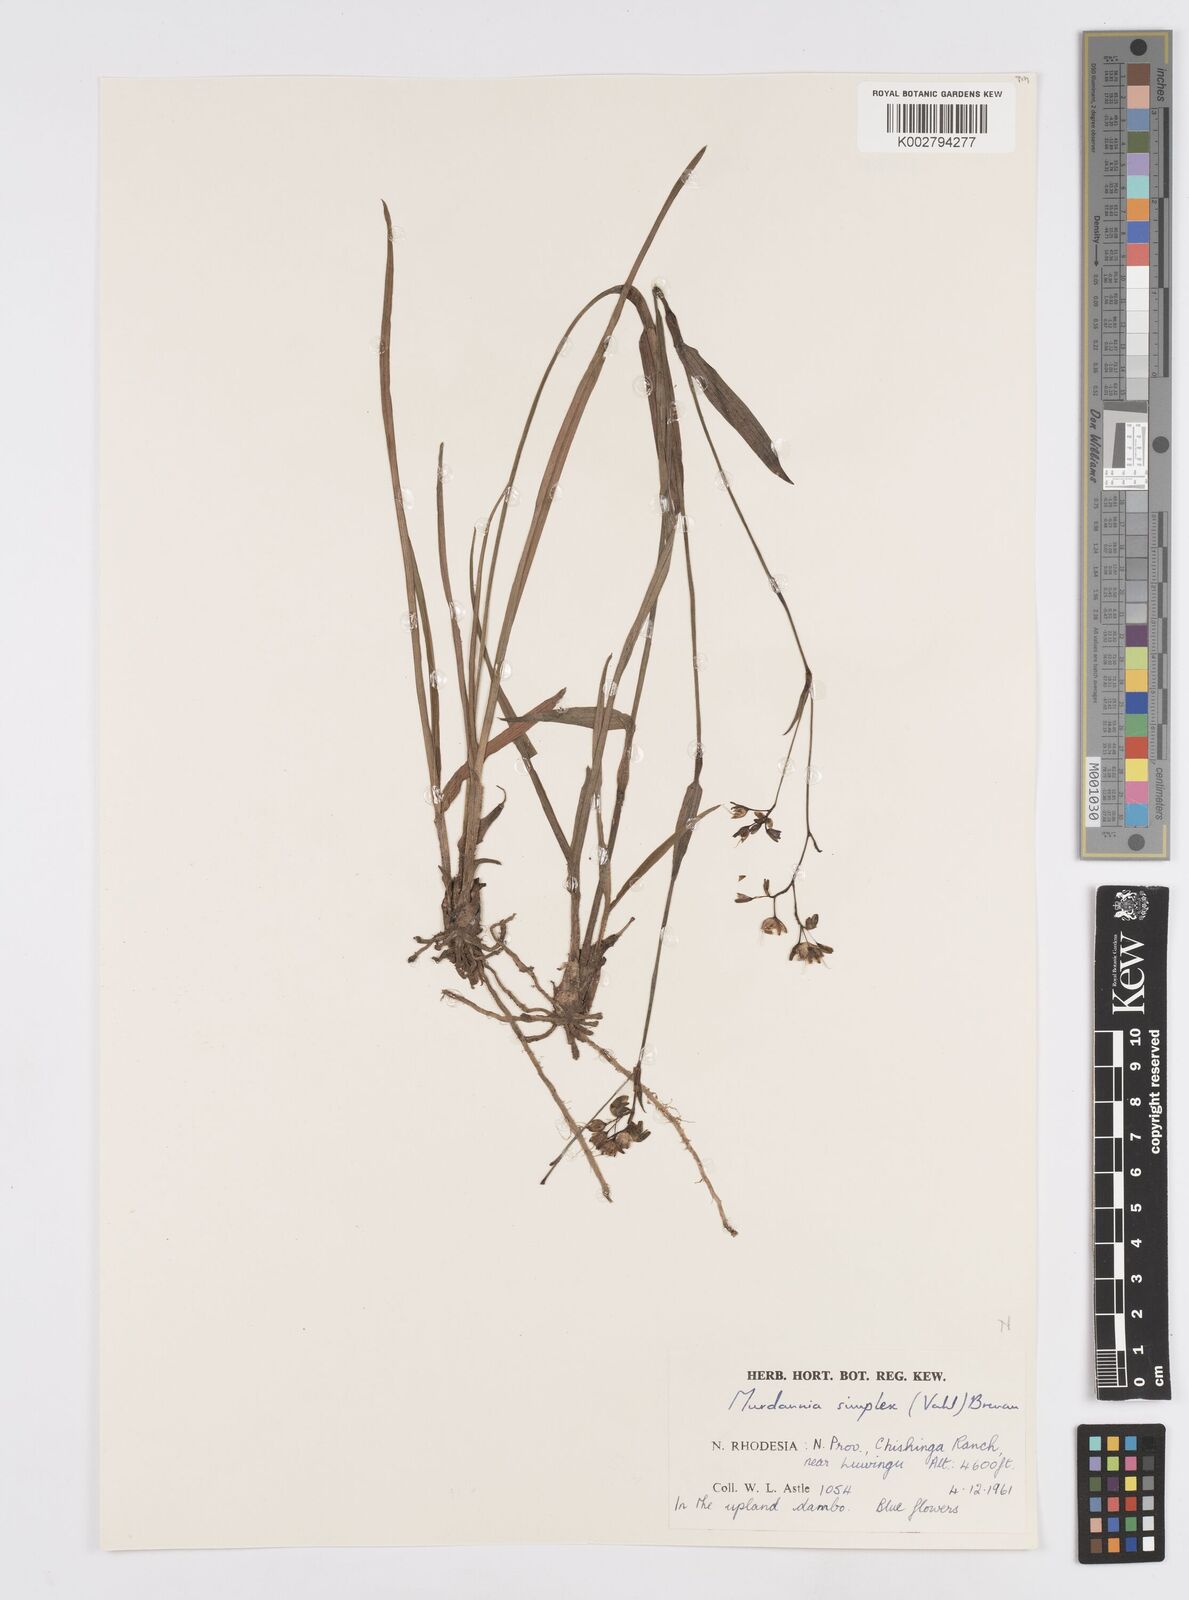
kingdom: Plantae
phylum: Tracheophyta
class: Liliopsida
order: Commelinales
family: Commelinaceae
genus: Murdannia
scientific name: Murdannia simplex
